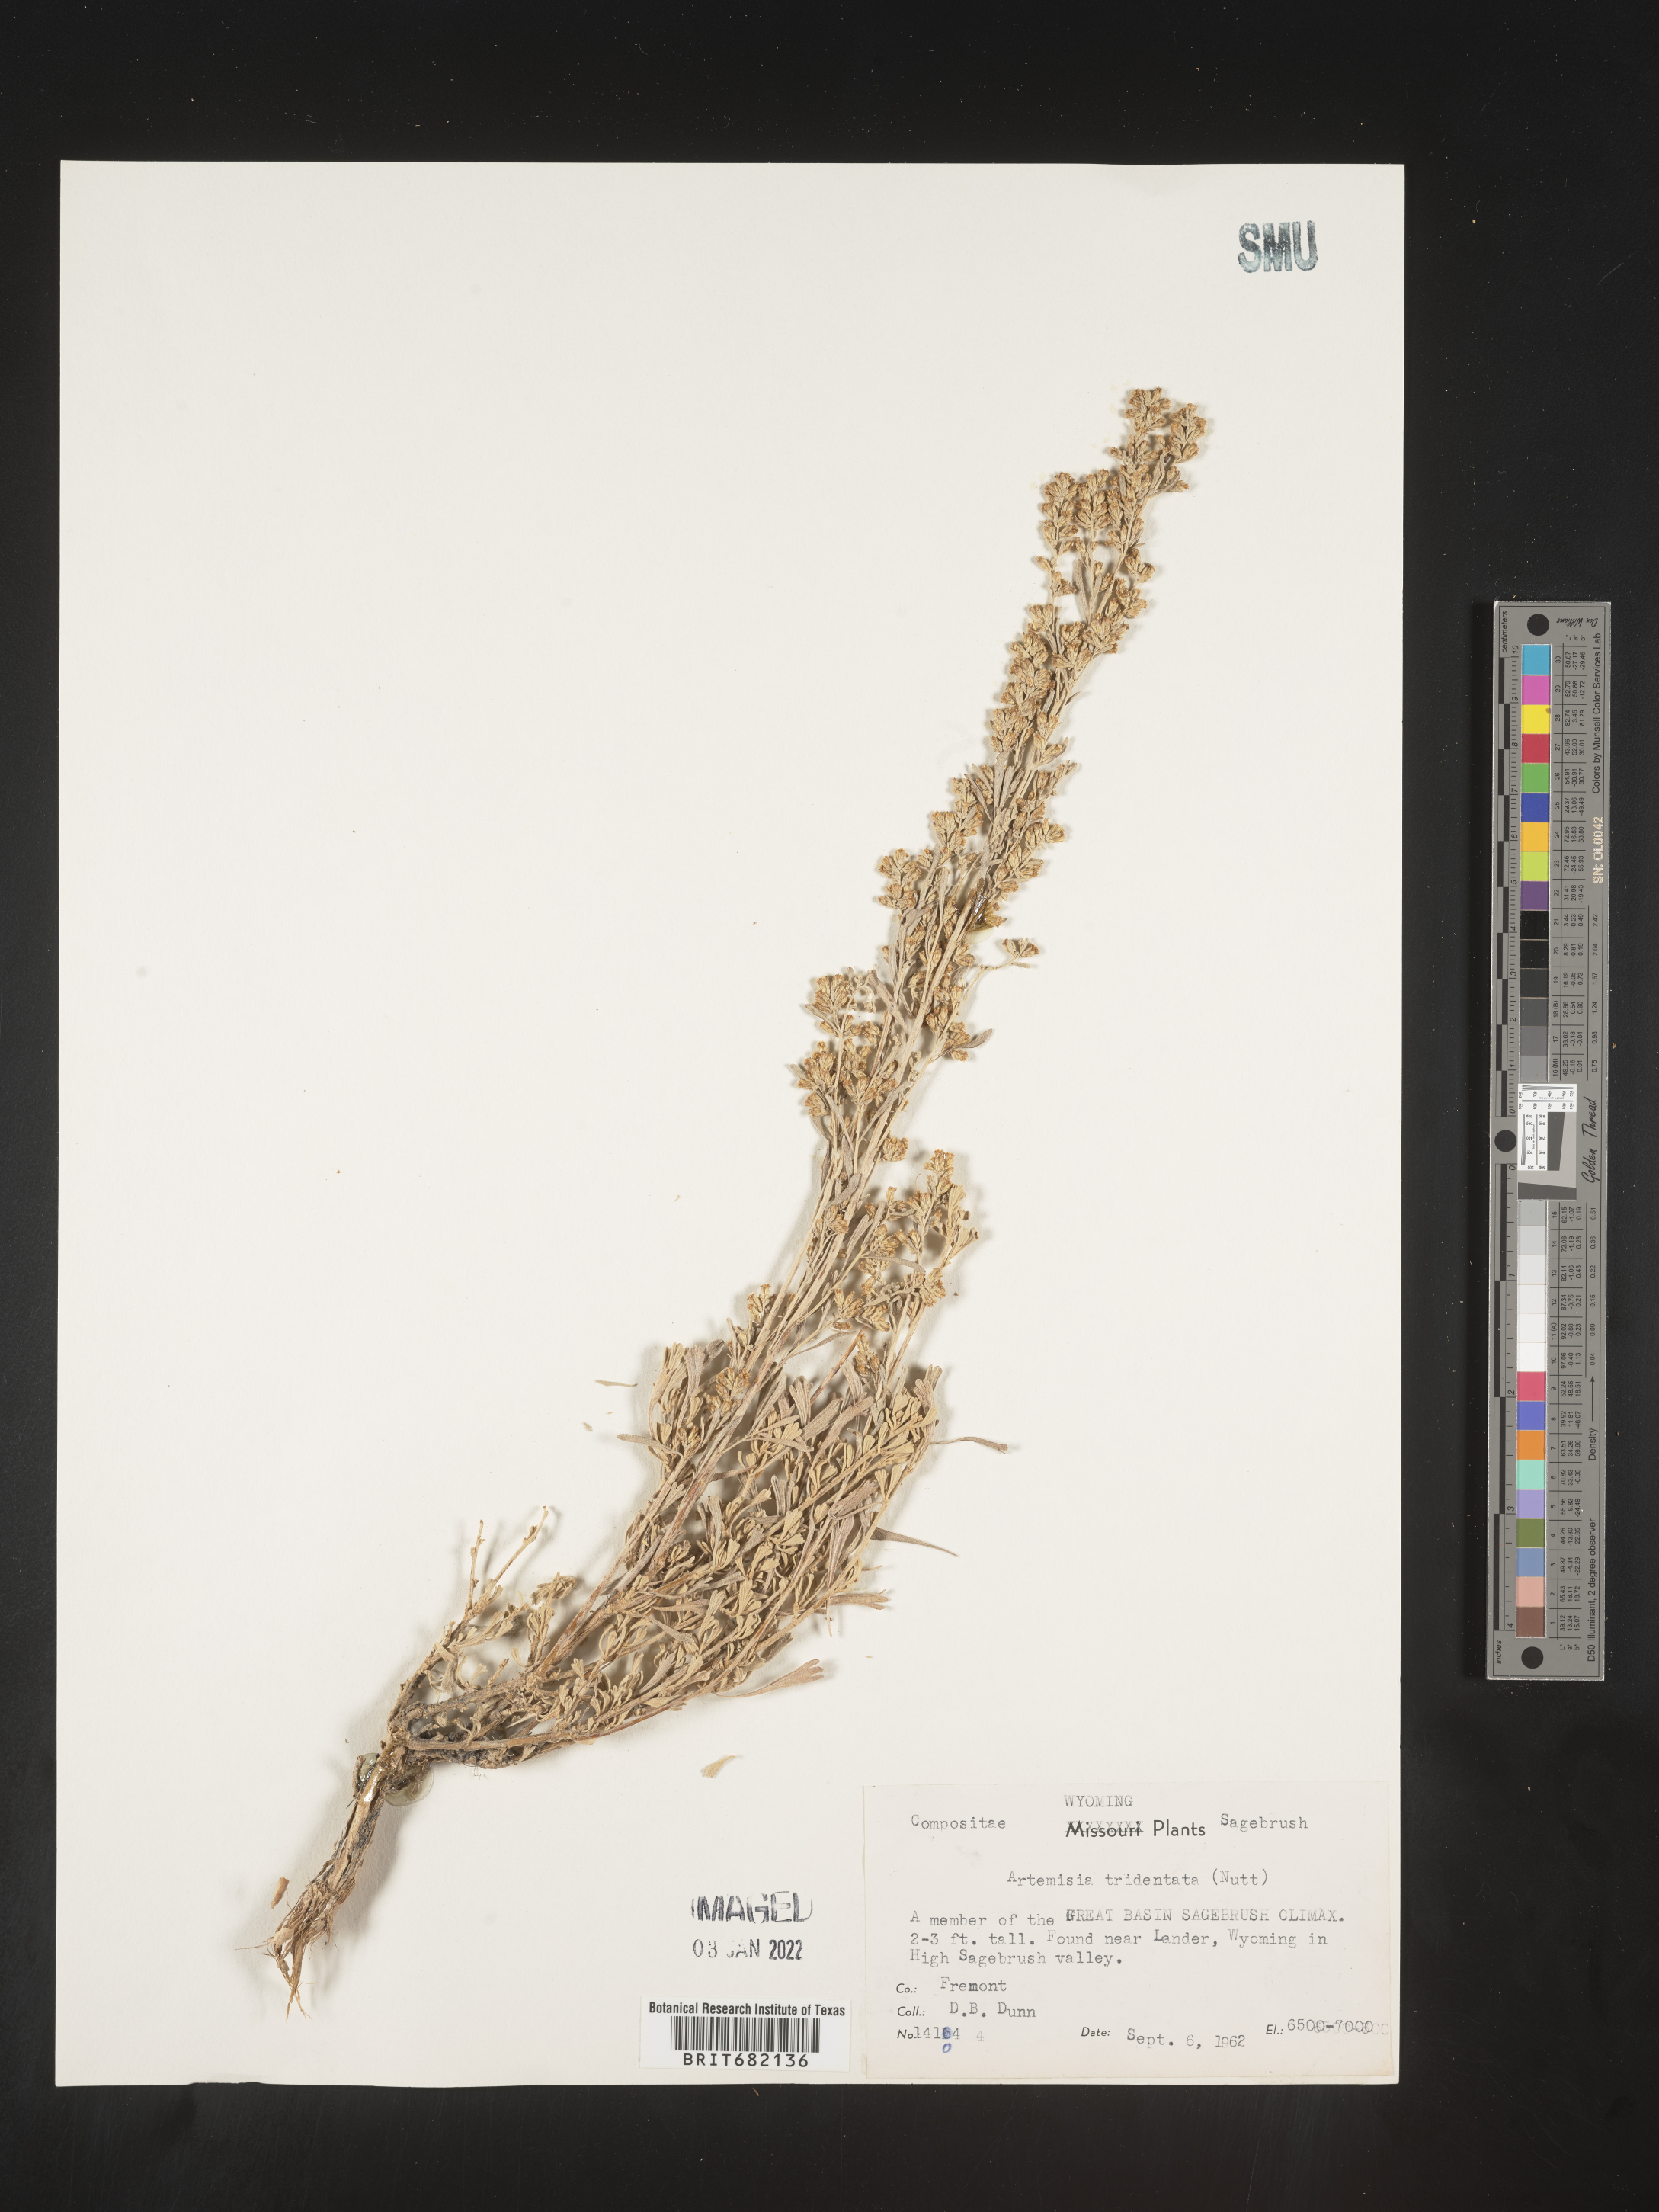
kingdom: Plantae
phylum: Tracheophyta
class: Magnoliopsida
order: Asterales
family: Asteraceae
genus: Artemisia
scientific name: Artemisia tridentata
